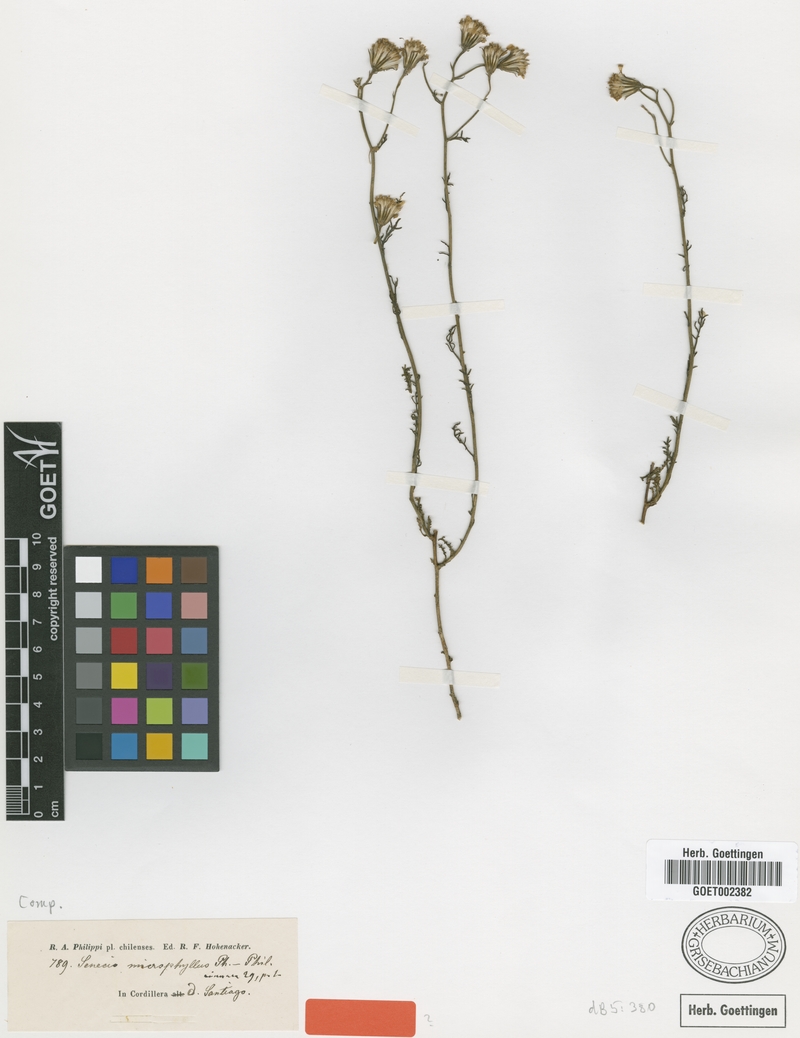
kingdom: Plantae
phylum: Tracheophyta
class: Magnoliopsida
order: Asterales
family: Asteraceae
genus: Senecio
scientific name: Senecio microphyllus
